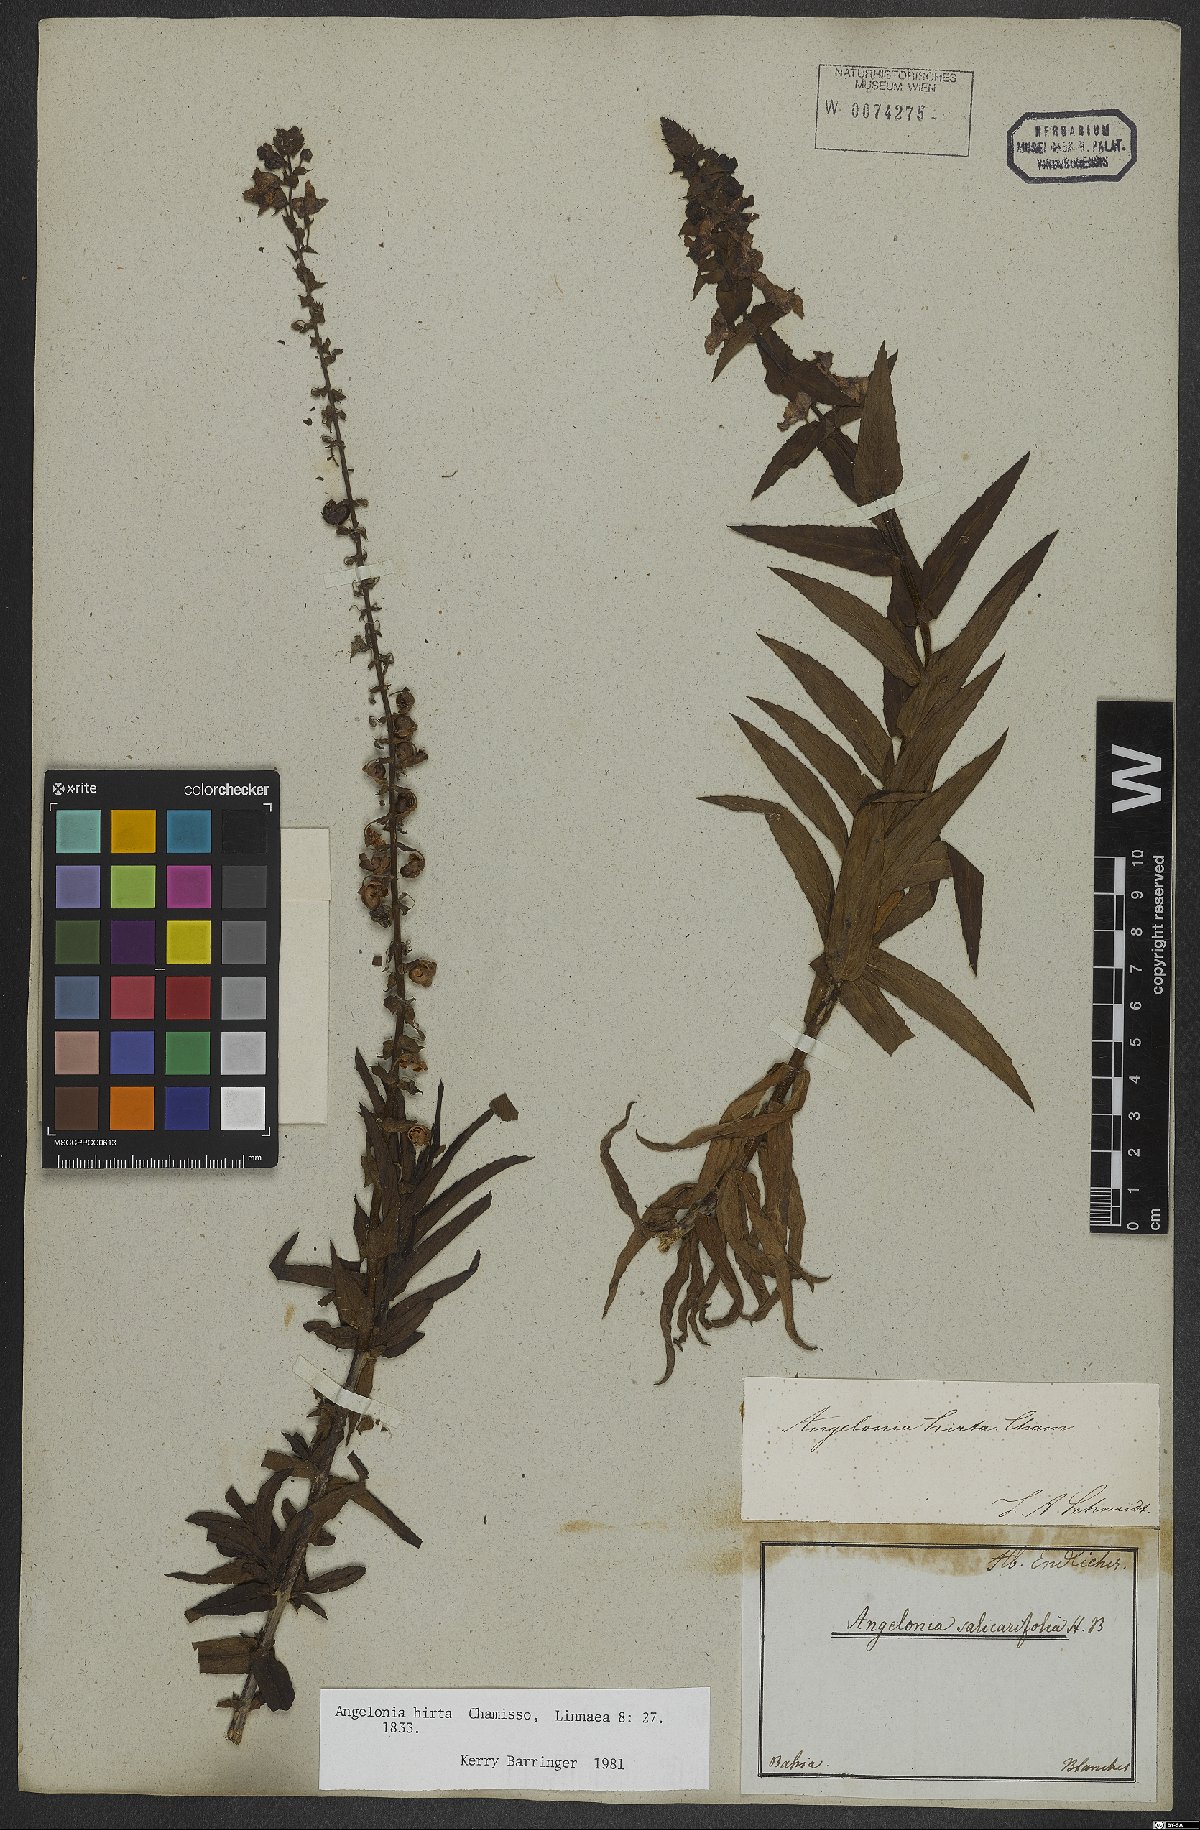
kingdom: Plantae
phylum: Tracheophyta
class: Magnoliopsida
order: Lamiales
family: Plantaginaceae
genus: Angelonia
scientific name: Angelonia salicariifolia
